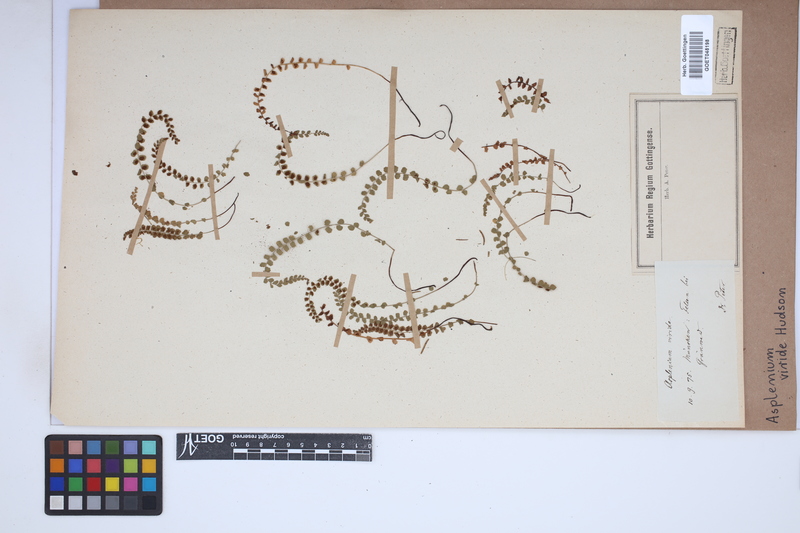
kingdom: Plantae
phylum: Tracheophyta
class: Polypodiopsida
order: Polypodiales
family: Aspleniaceae
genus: Asplenium
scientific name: Asplenium viride
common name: Green spleenwort
